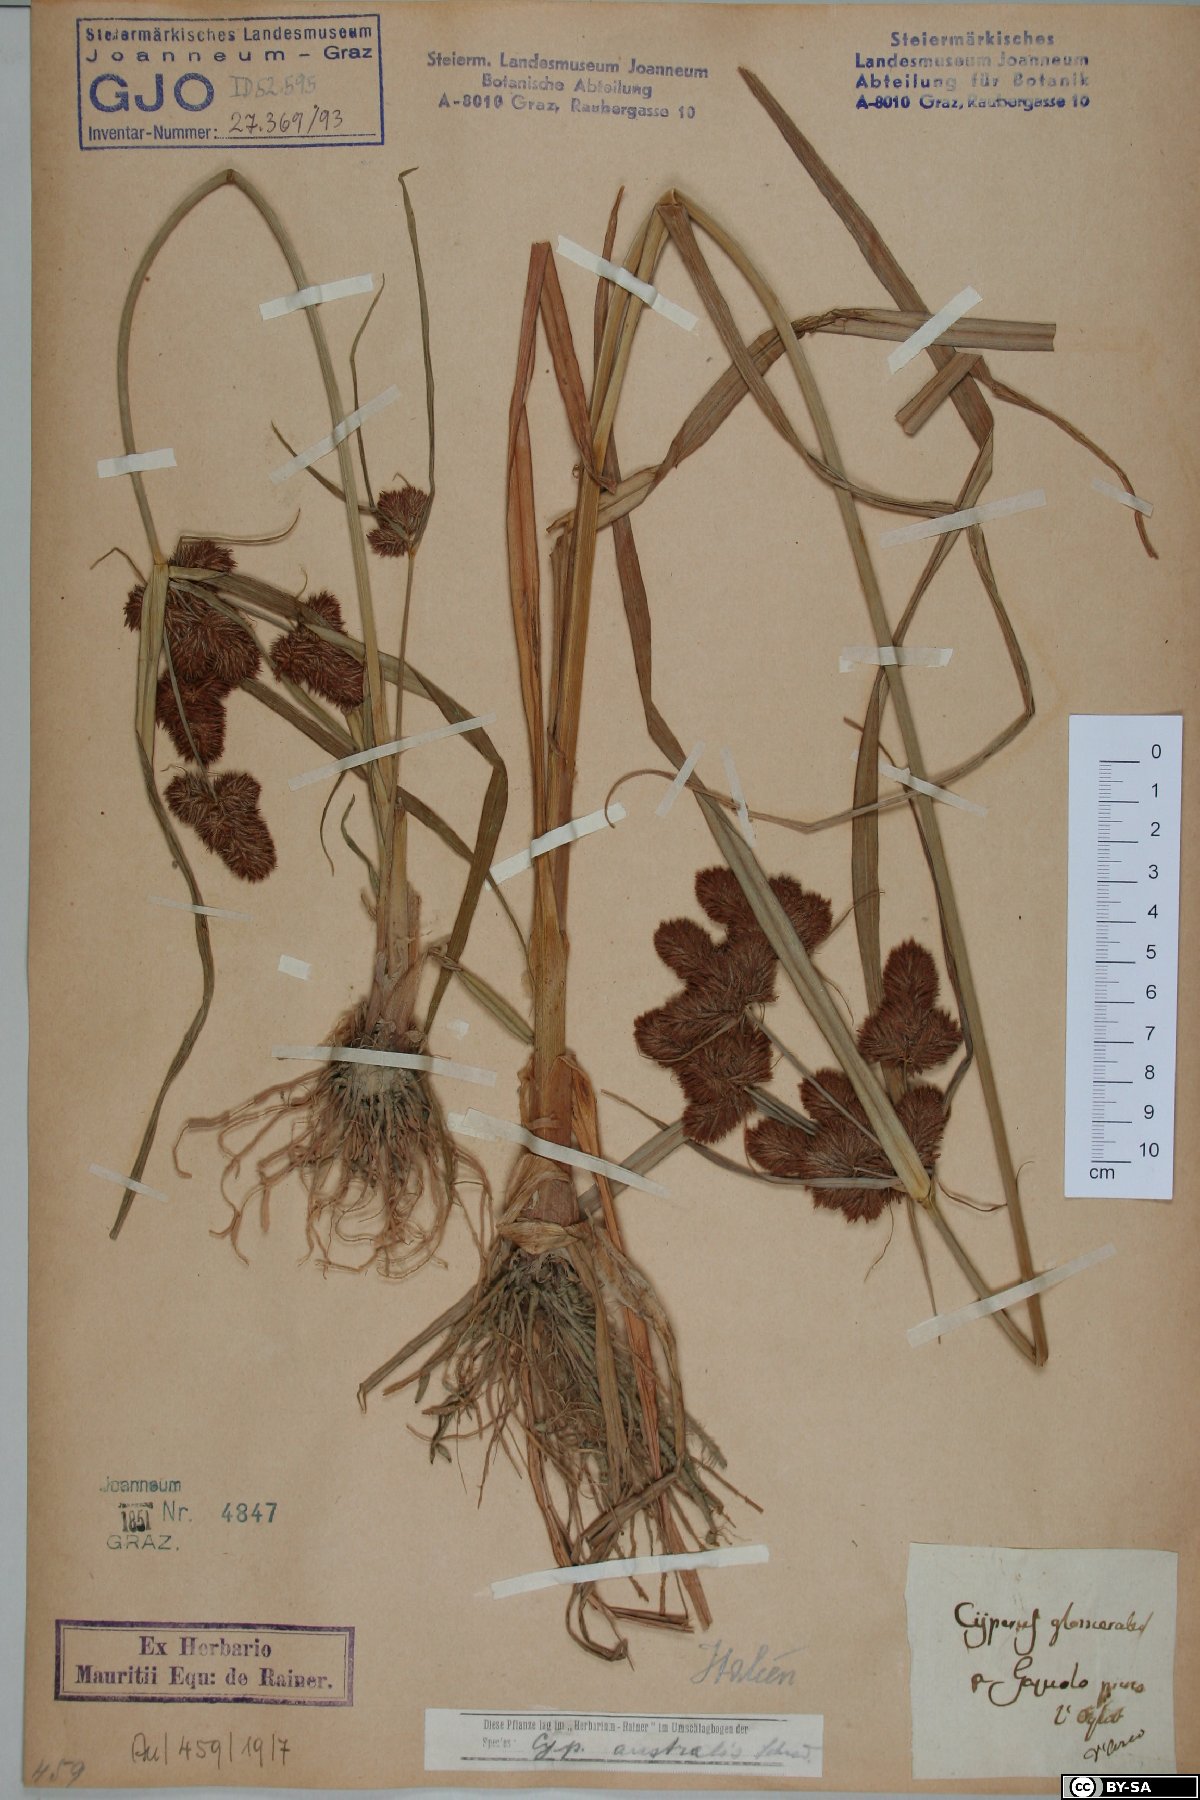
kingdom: Plantae
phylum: Tracheophyta
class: Liliopsida
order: Poales
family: Cyperaceae
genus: Cyperus
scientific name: Cyperus glomeratus
